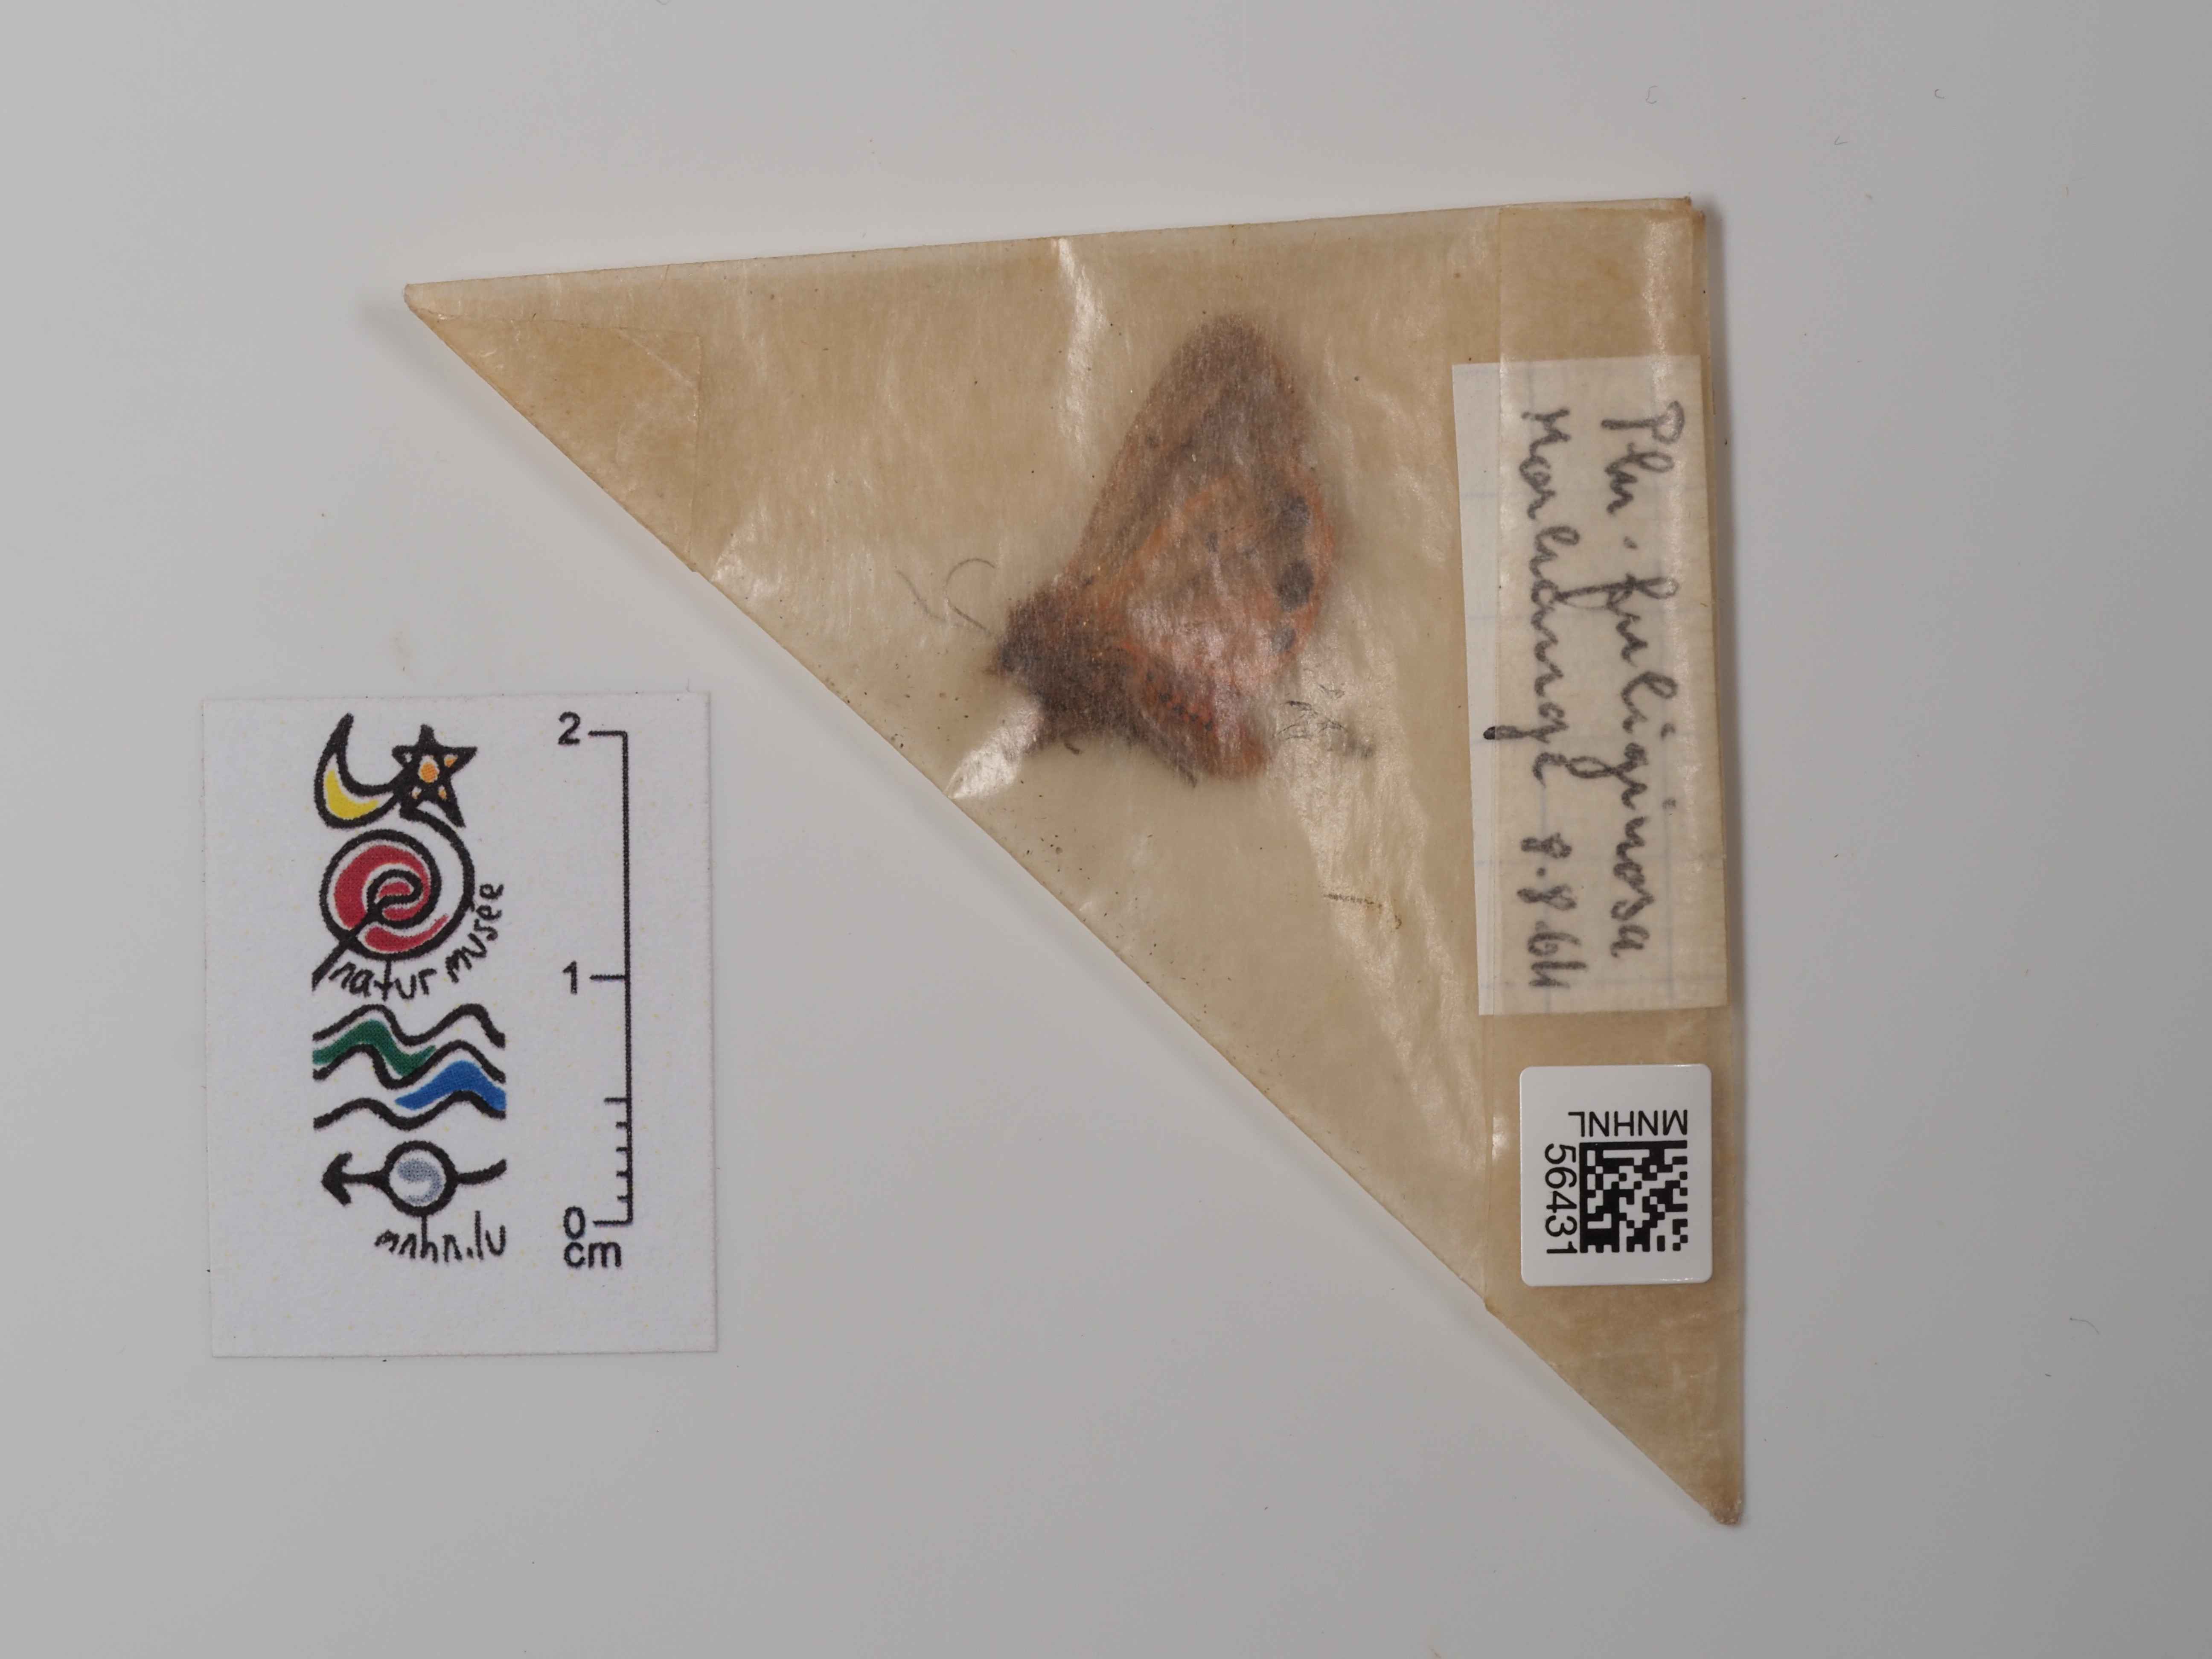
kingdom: Animalia
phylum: Arthropoda
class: Insecta
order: Lepidoptera
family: Erebidae
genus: Phragmatobia
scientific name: Phragmatobia fuliginosa
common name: Ruby tiger
